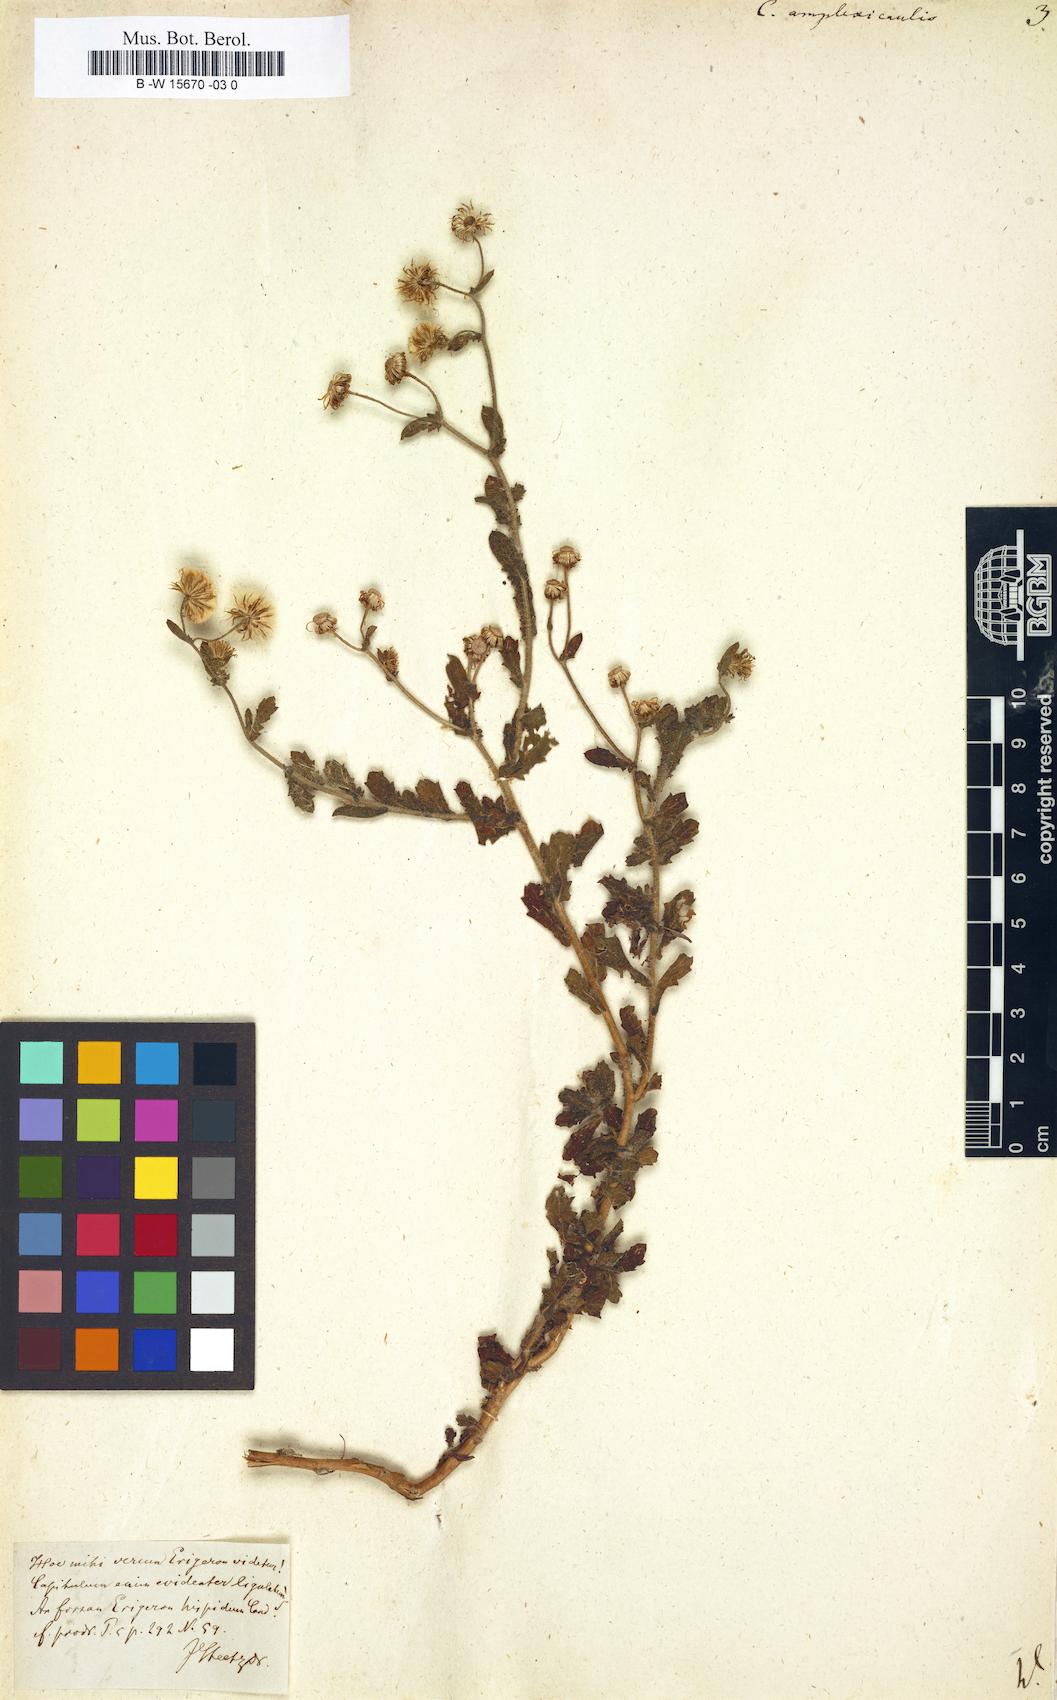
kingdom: Plantae
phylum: Tracheophyta
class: Magnoliopsida
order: Asterales
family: Asteraceae
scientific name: Asteraceae
